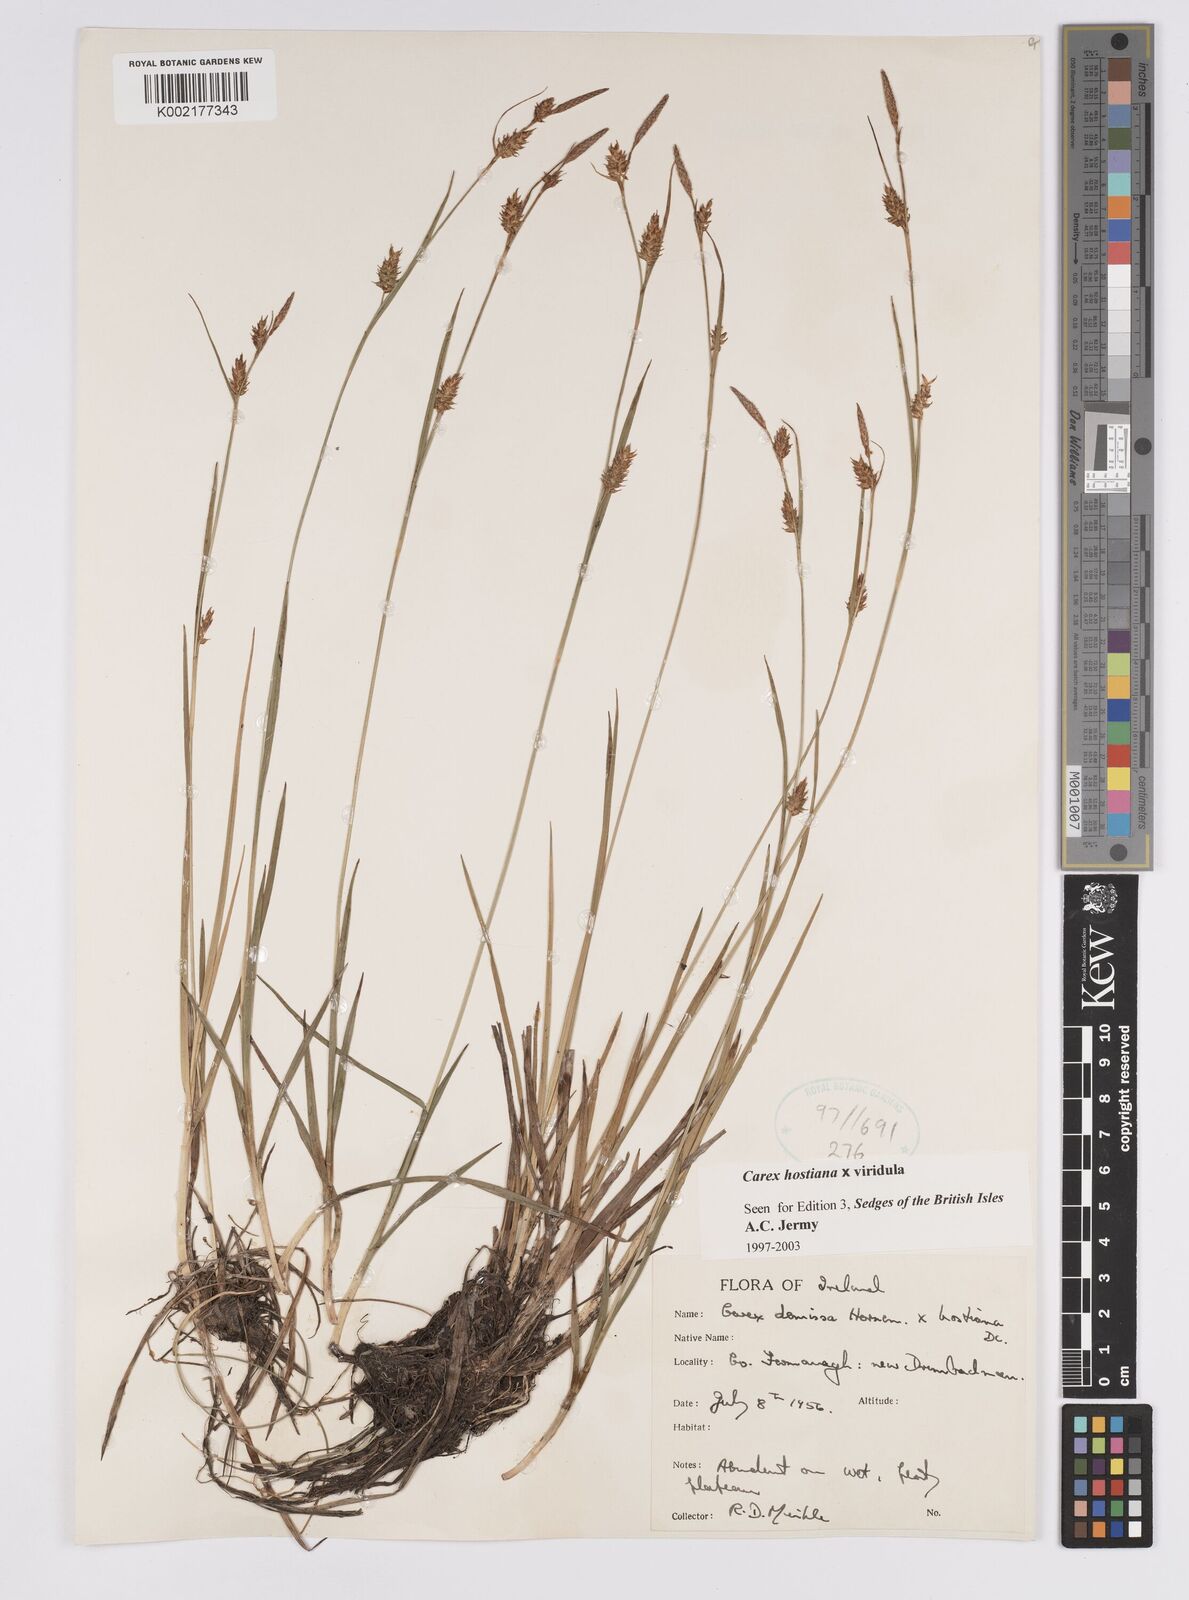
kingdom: Plantae
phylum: Tracheophyta
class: Liliopsida
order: Poales
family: Cyperaceae
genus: Carex
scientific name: Carex hostiana
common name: Tawny sedge
